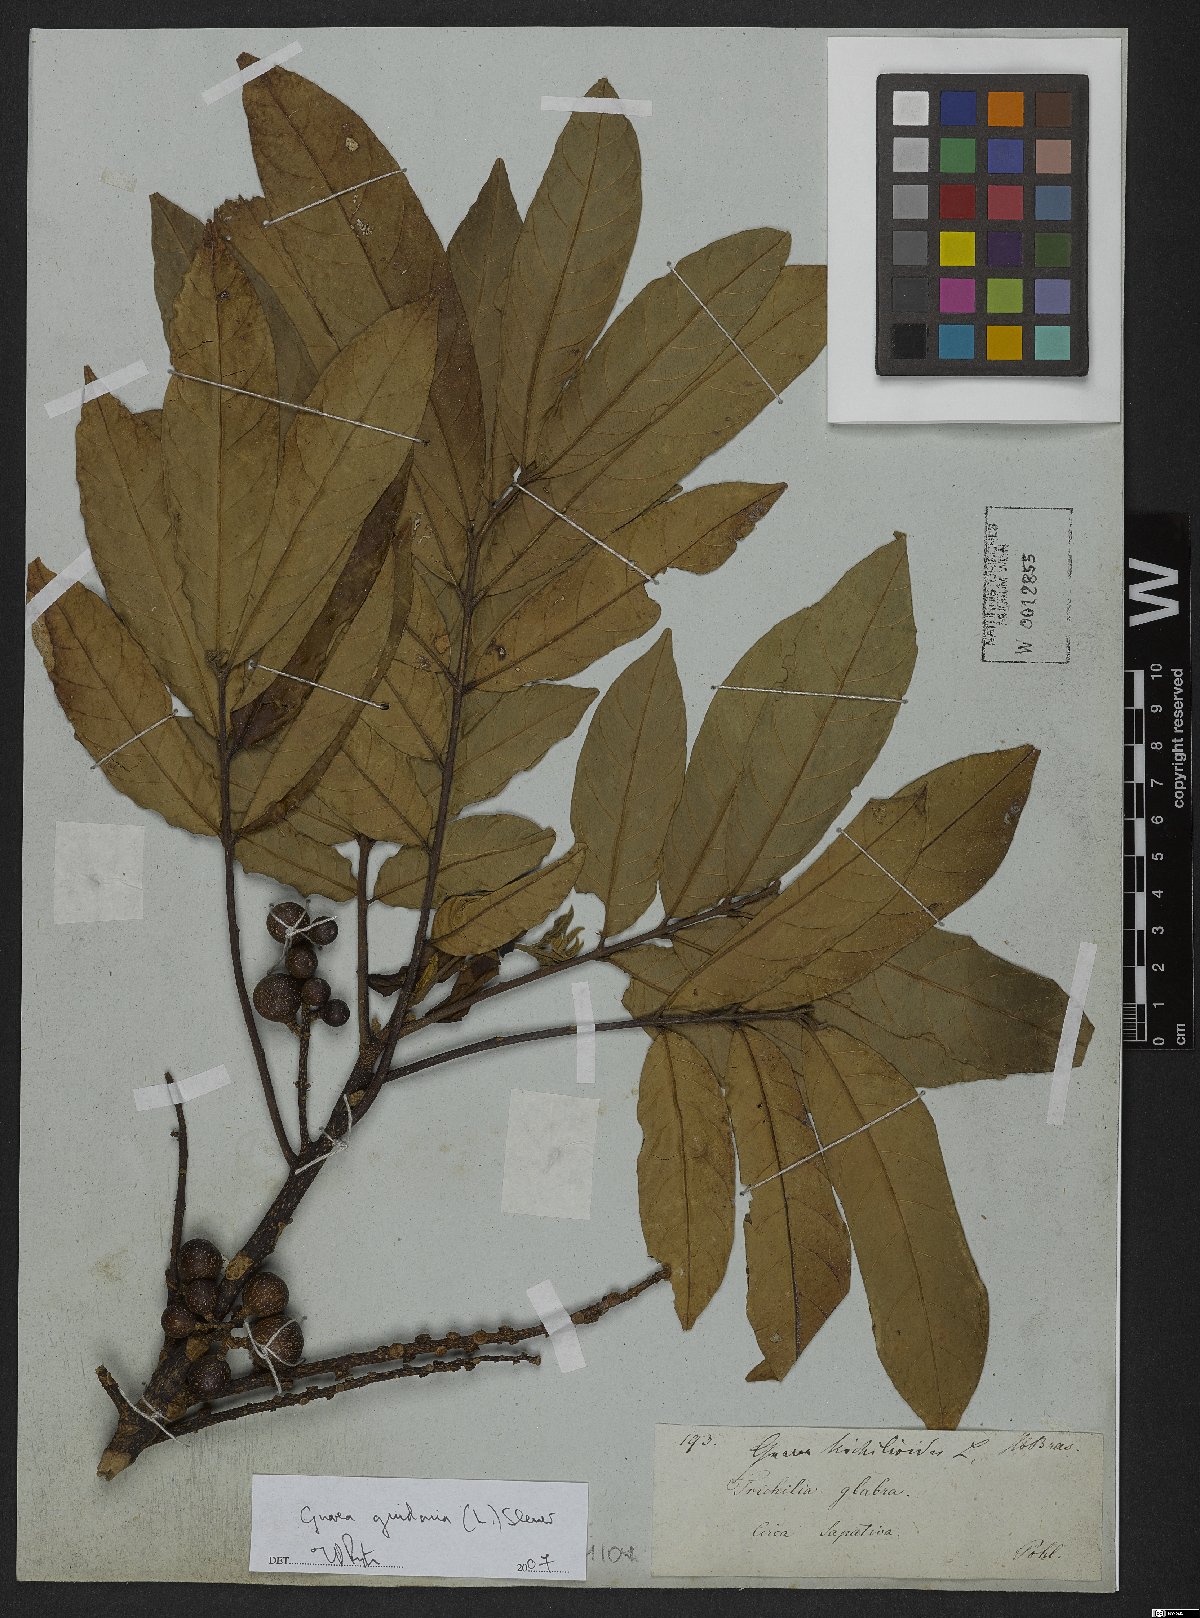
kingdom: Plantae
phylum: Tracheophyta
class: Magnoliopsida
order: Sapindales
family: Meliaceae
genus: Guarea
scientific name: Guarea guidonia
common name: American muskwood
